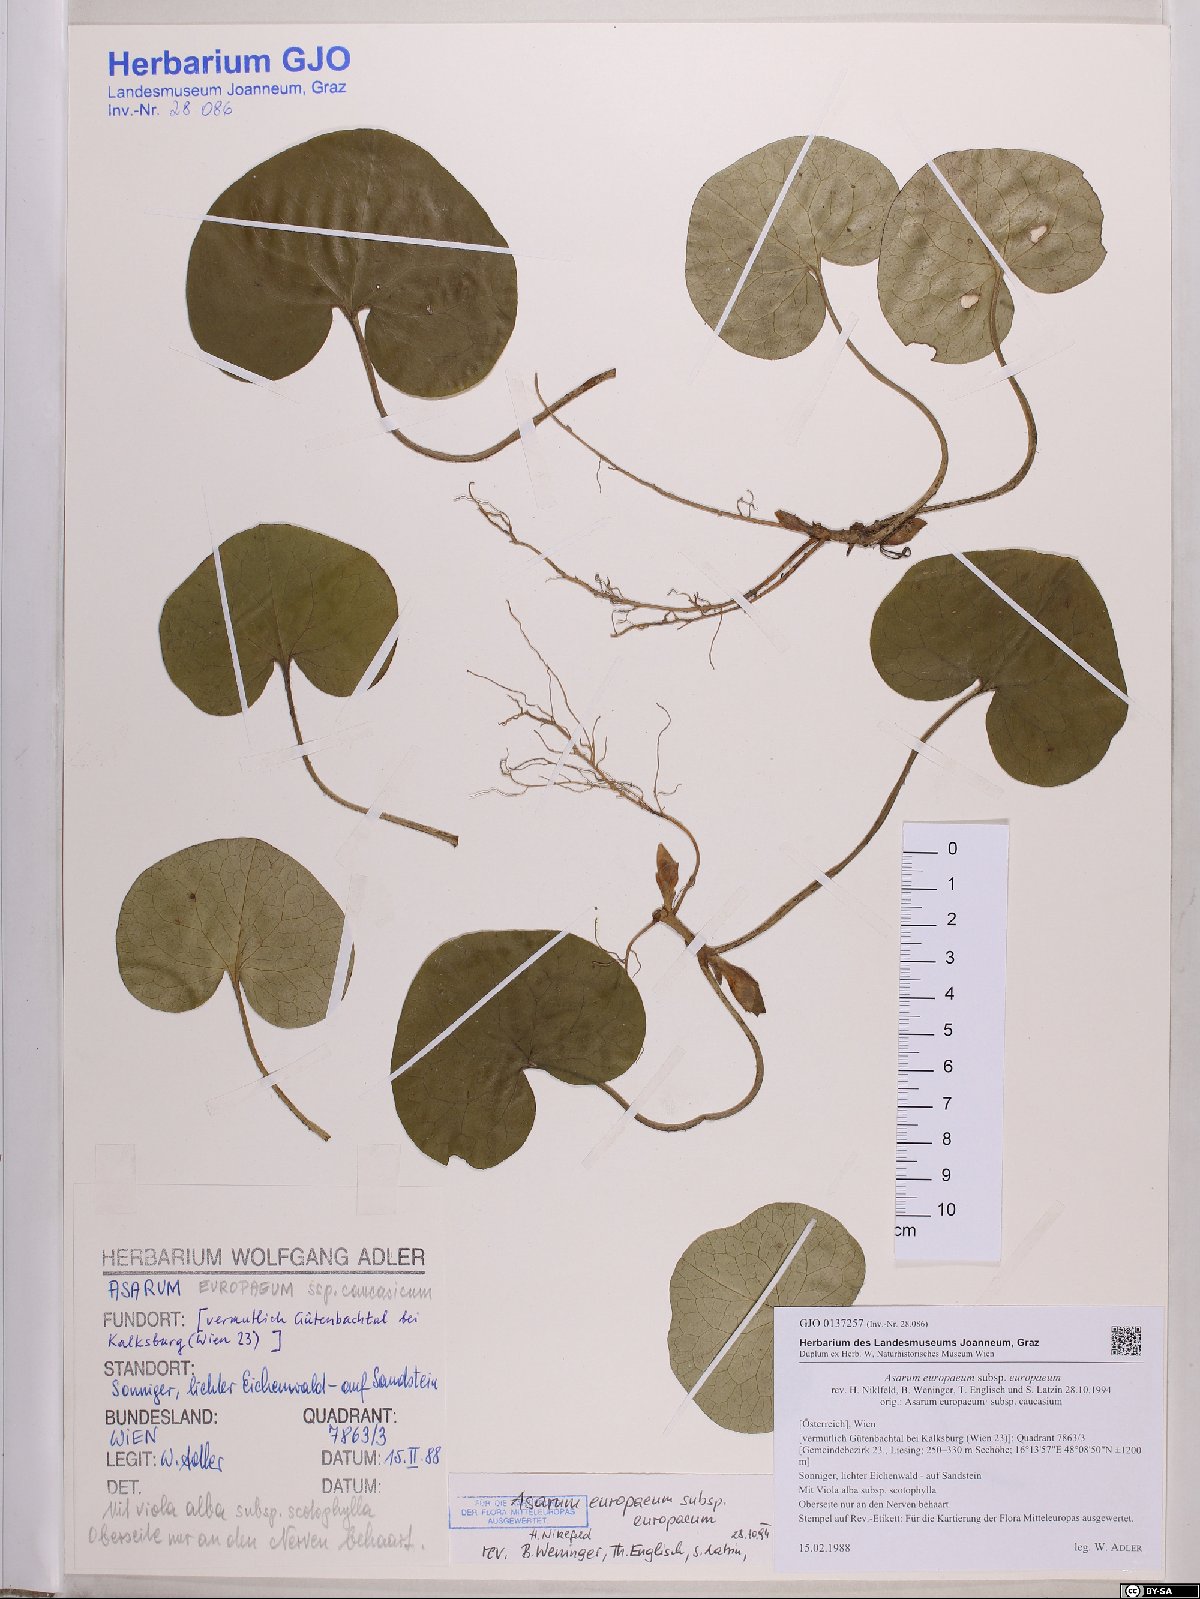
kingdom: Plantae
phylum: Tracheophyta
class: Magnoliopsida
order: Piperales
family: Aristolochiaceae
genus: Asarum
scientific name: Asarum europaeum
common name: Asarabacca
